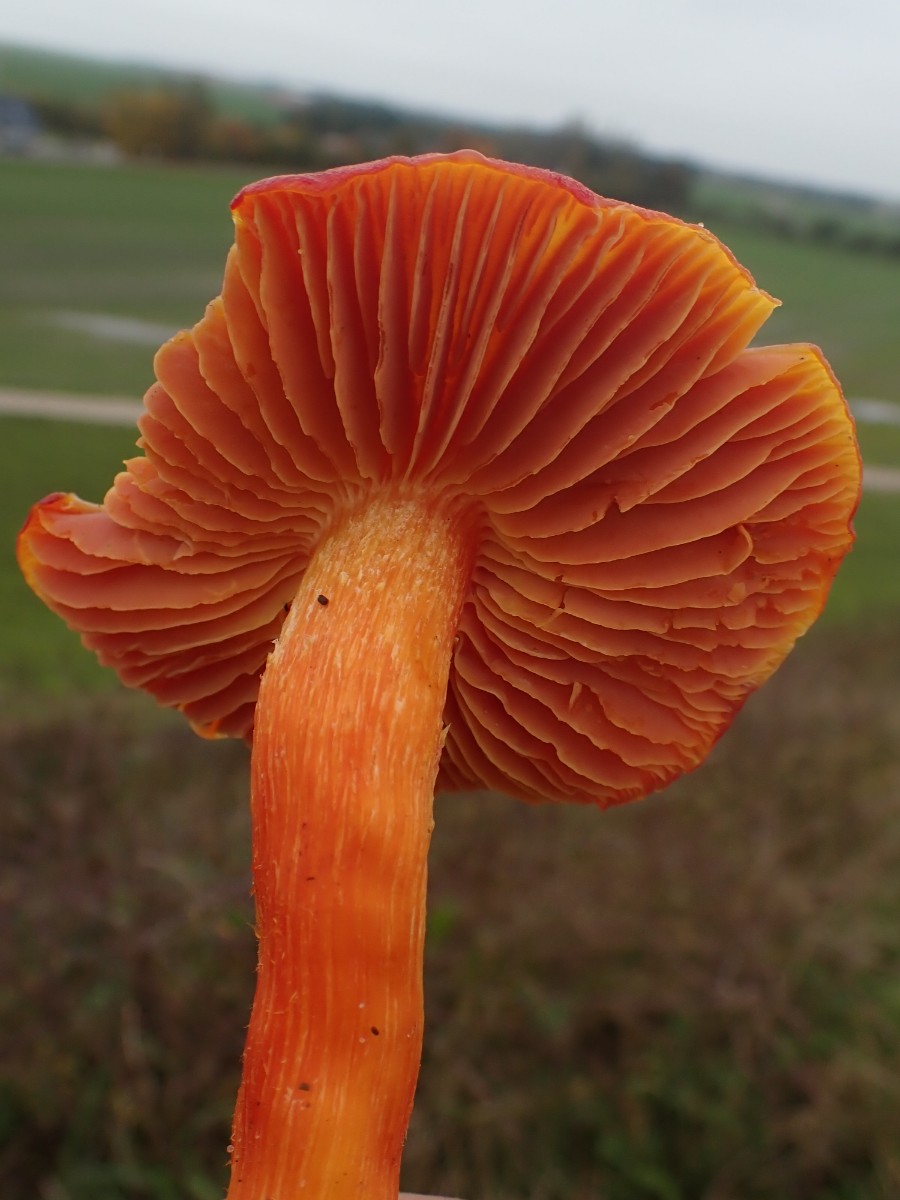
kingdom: Fungi
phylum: Basidiomycota
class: Agaricomycetes
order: Agaricales
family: Hygrophoraceae
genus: Hygrocybe
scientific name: Hygrocybe punicea
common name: skarlagen-vokshat
